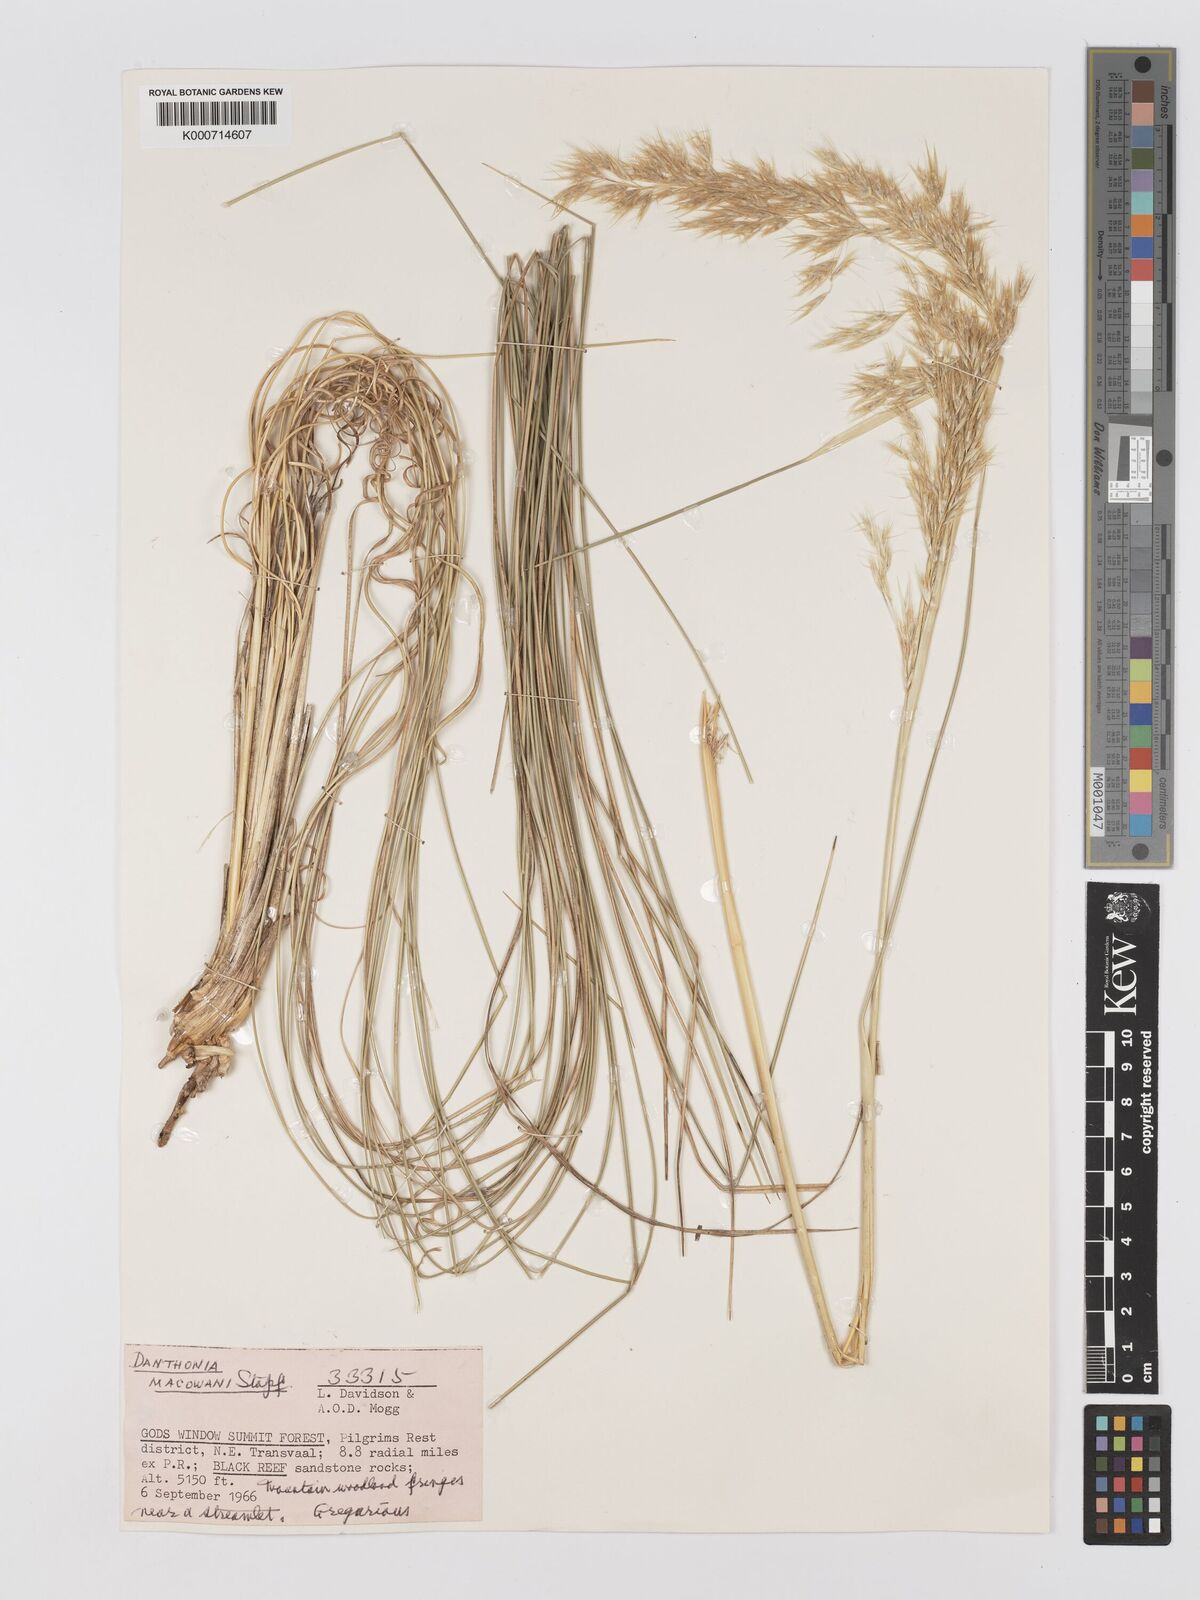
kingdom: Plantae
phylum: Tracheophyta
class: Liliopsida
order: Poales
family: Poaceae
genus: Rytidosperma
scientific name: Rytidosperma
